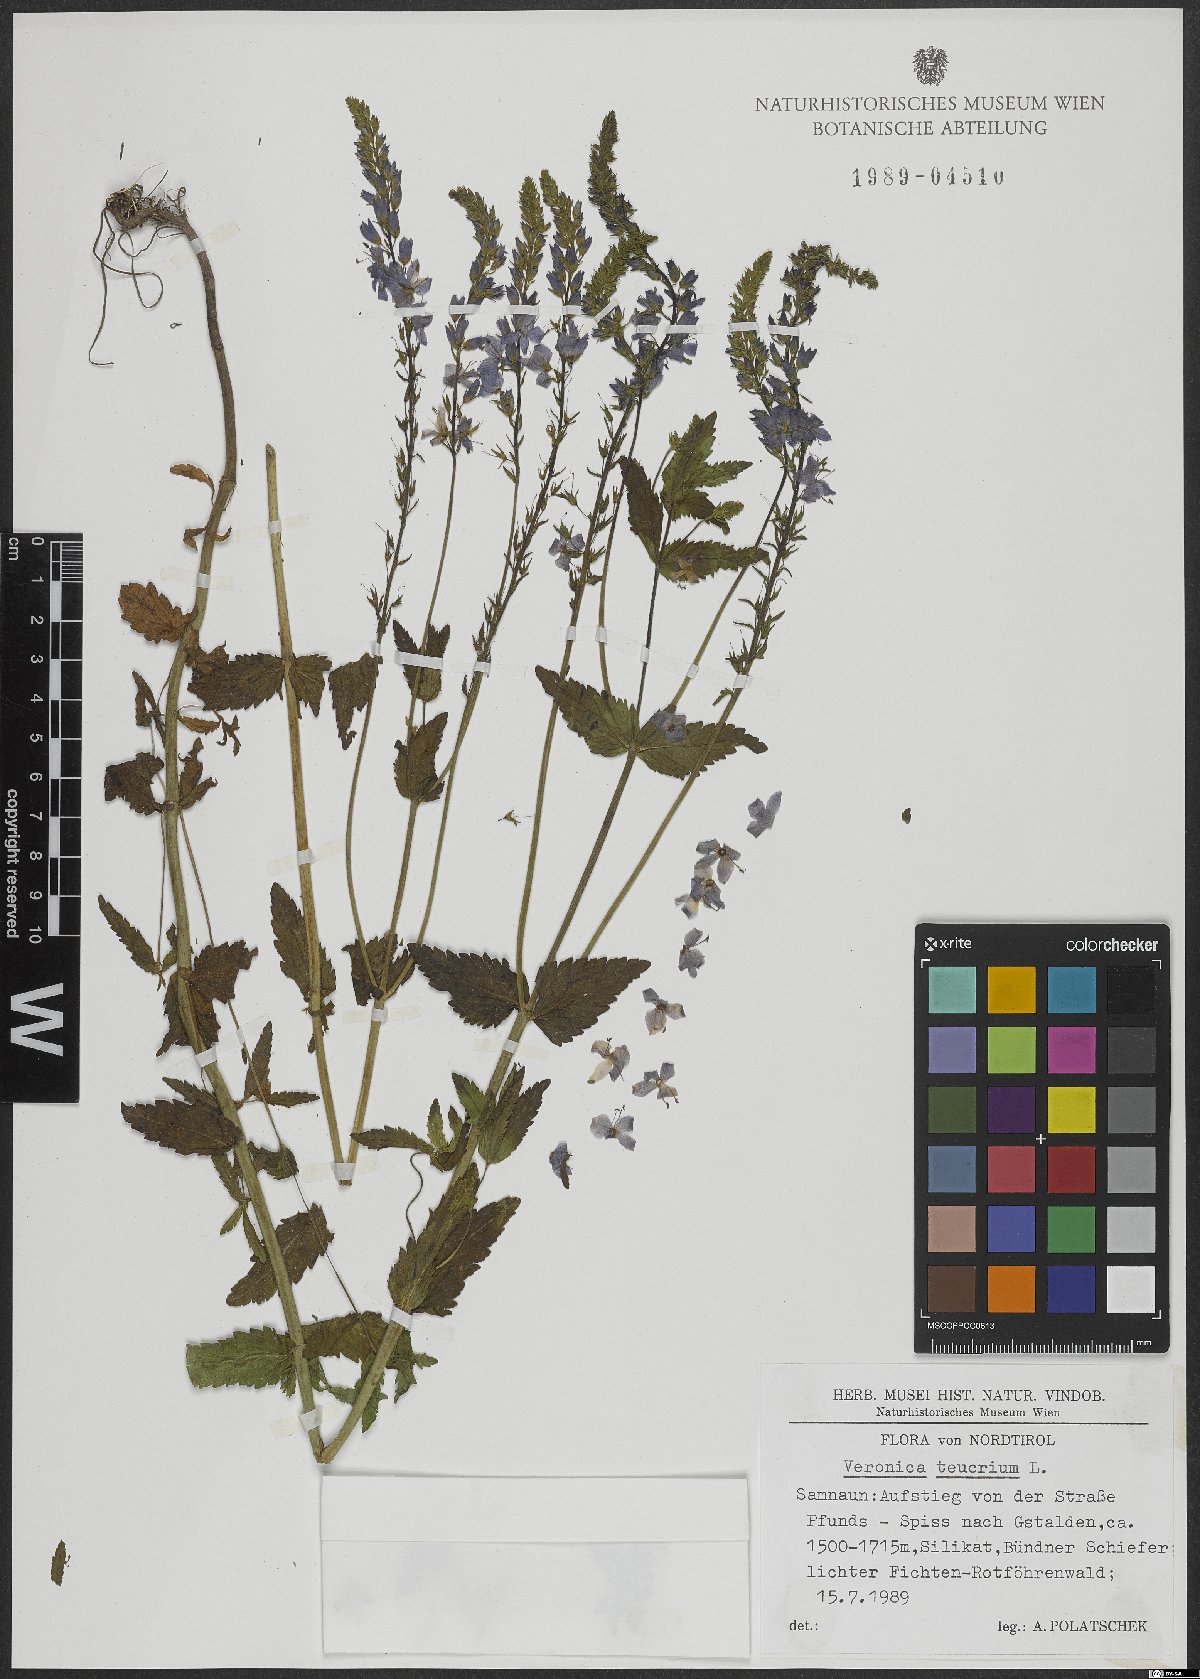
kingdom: Plantae
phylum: Tracheophyta
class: Magnoliopsida
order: Lamiales
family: Plantaginaceae
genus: Veronica
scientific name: Veronica teucrium
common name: Large speedwell
